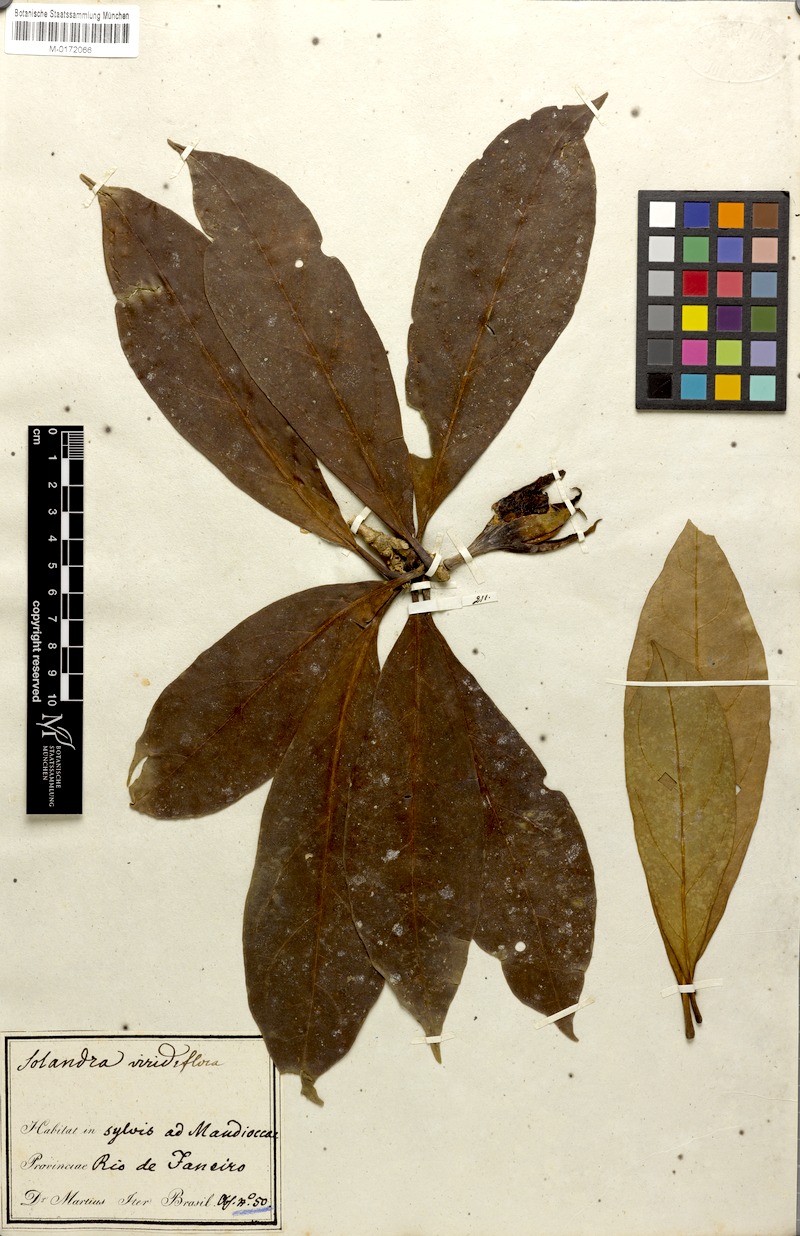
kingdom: Plantae
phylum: Tracheophyta
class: Magnoliopsida
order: Solanales
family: Solanaceae
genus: Dyssochroma
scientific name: Dyssochroma viridiflorum
